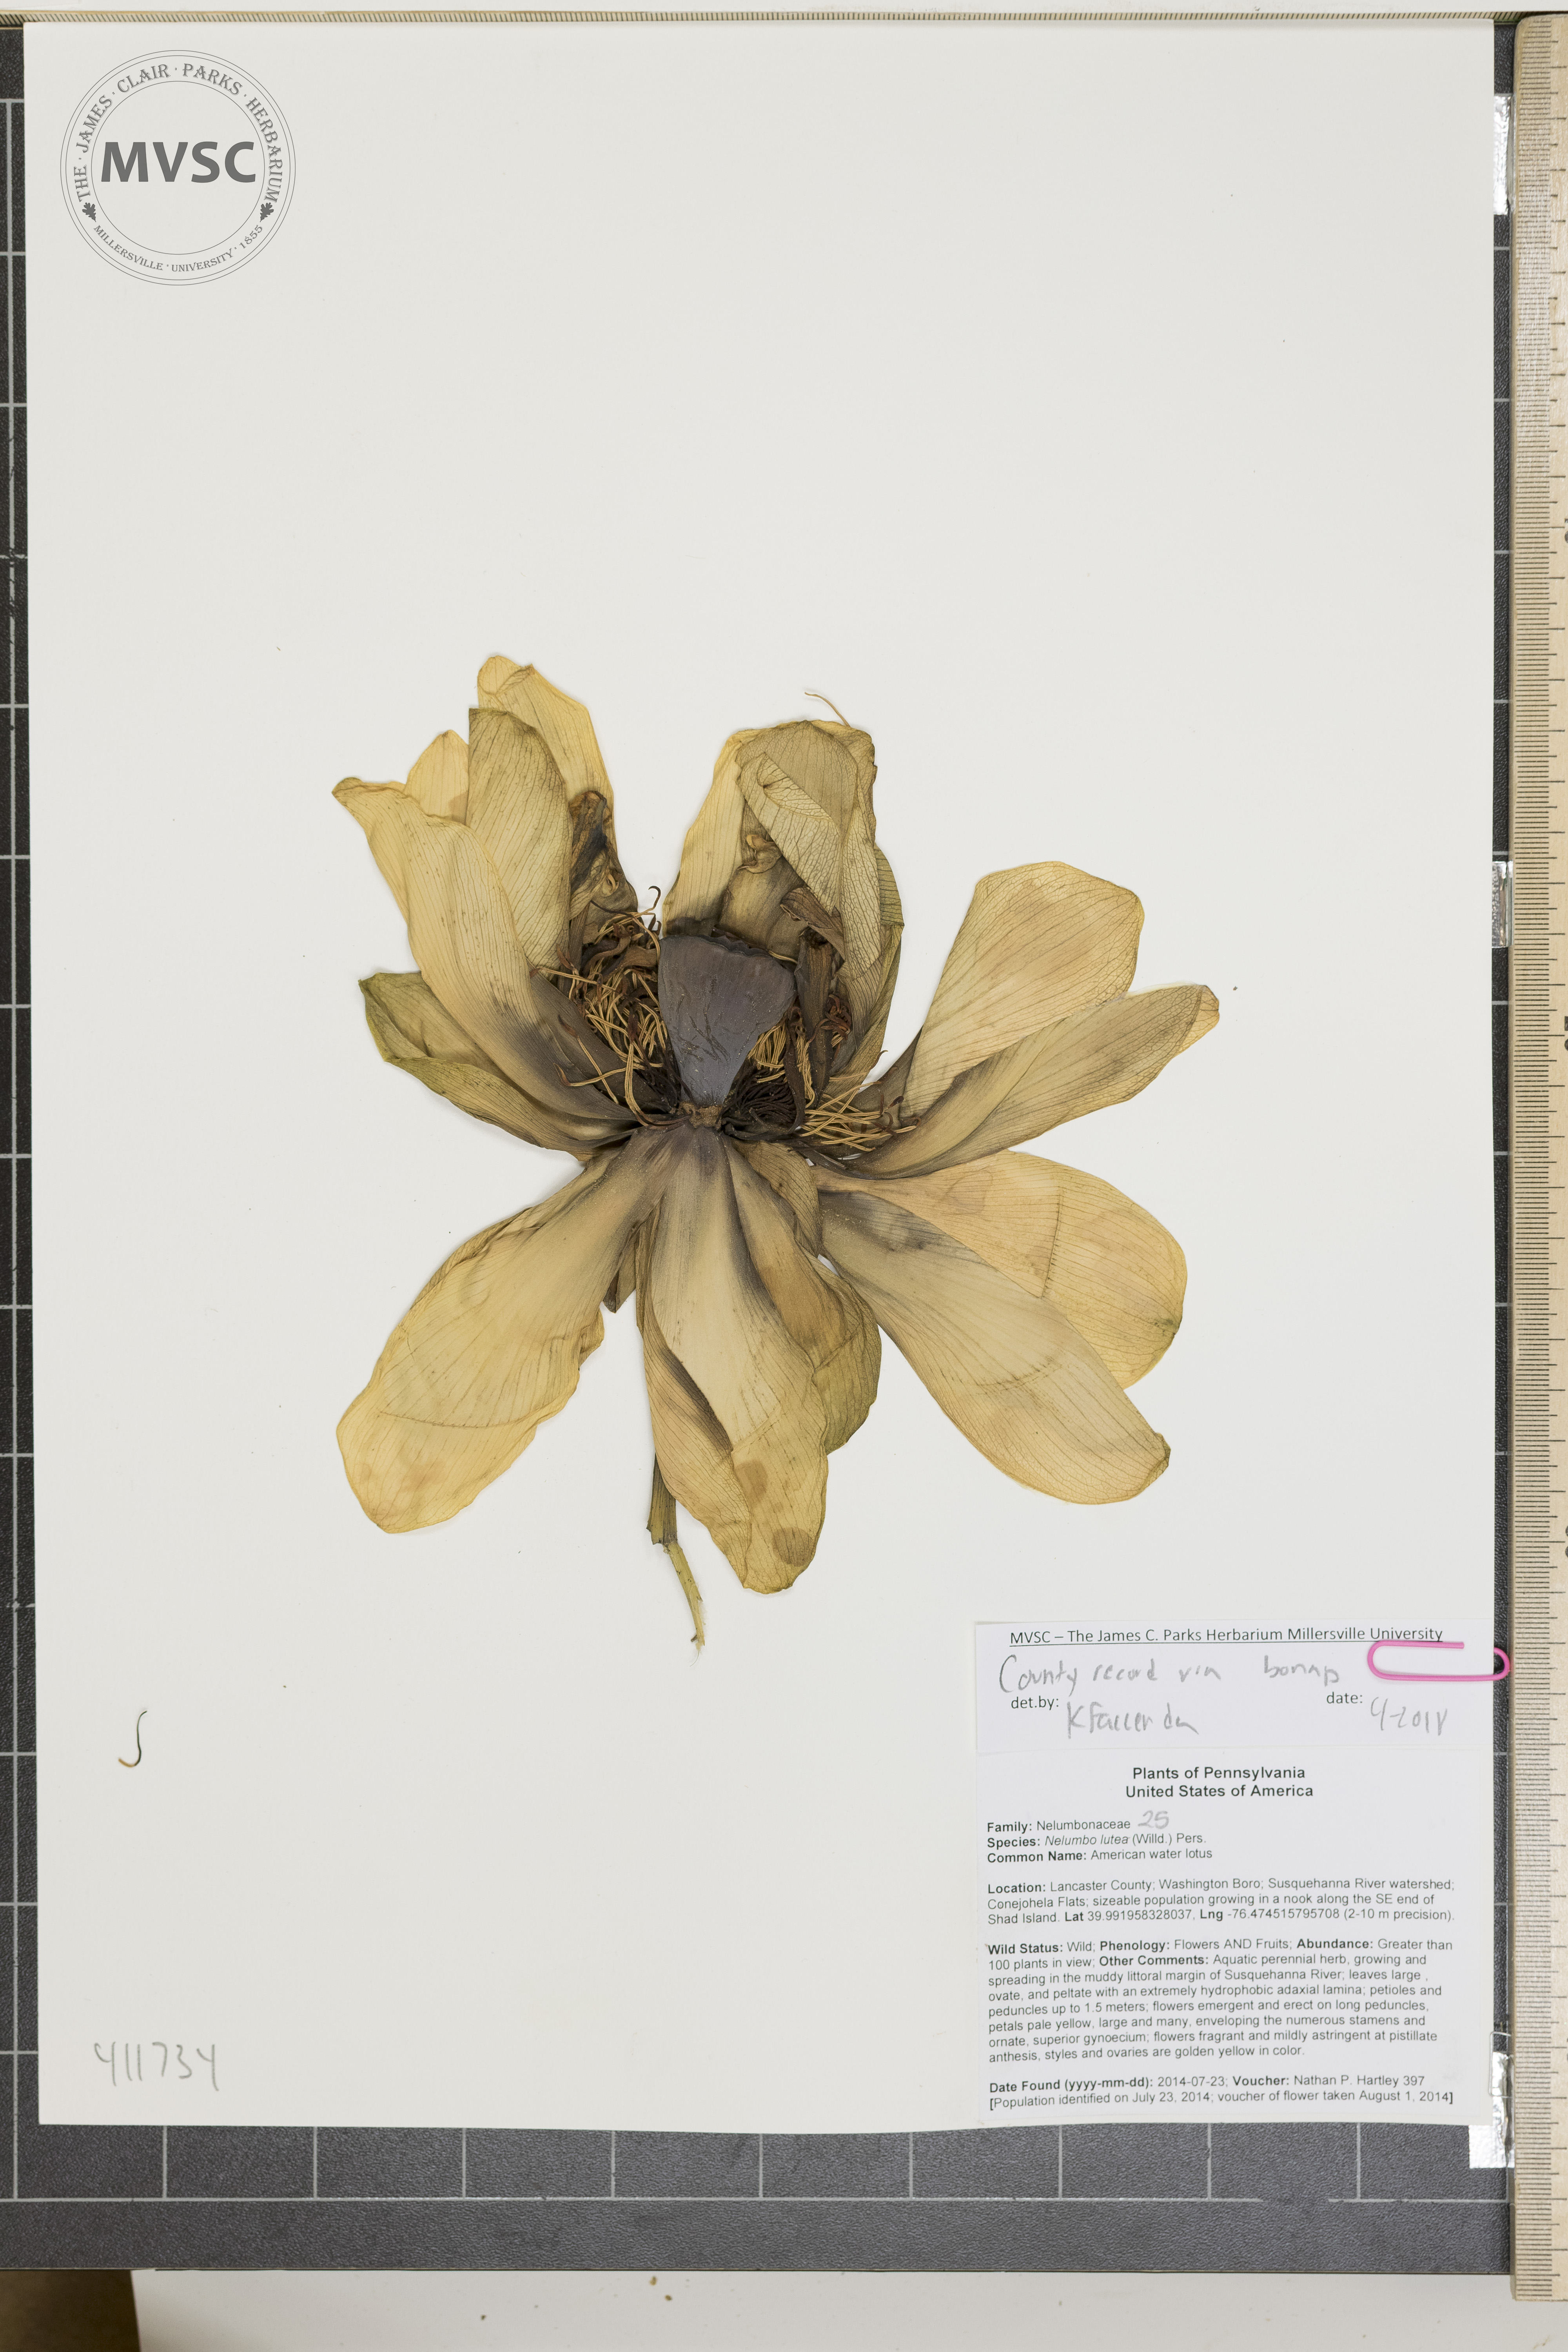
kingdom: Plantae
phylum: Tracheophyta
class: Magnoliopsida
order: Proteales
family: Nelumbonaceae
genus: Nelumbo
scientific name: Nelumbo lutea
